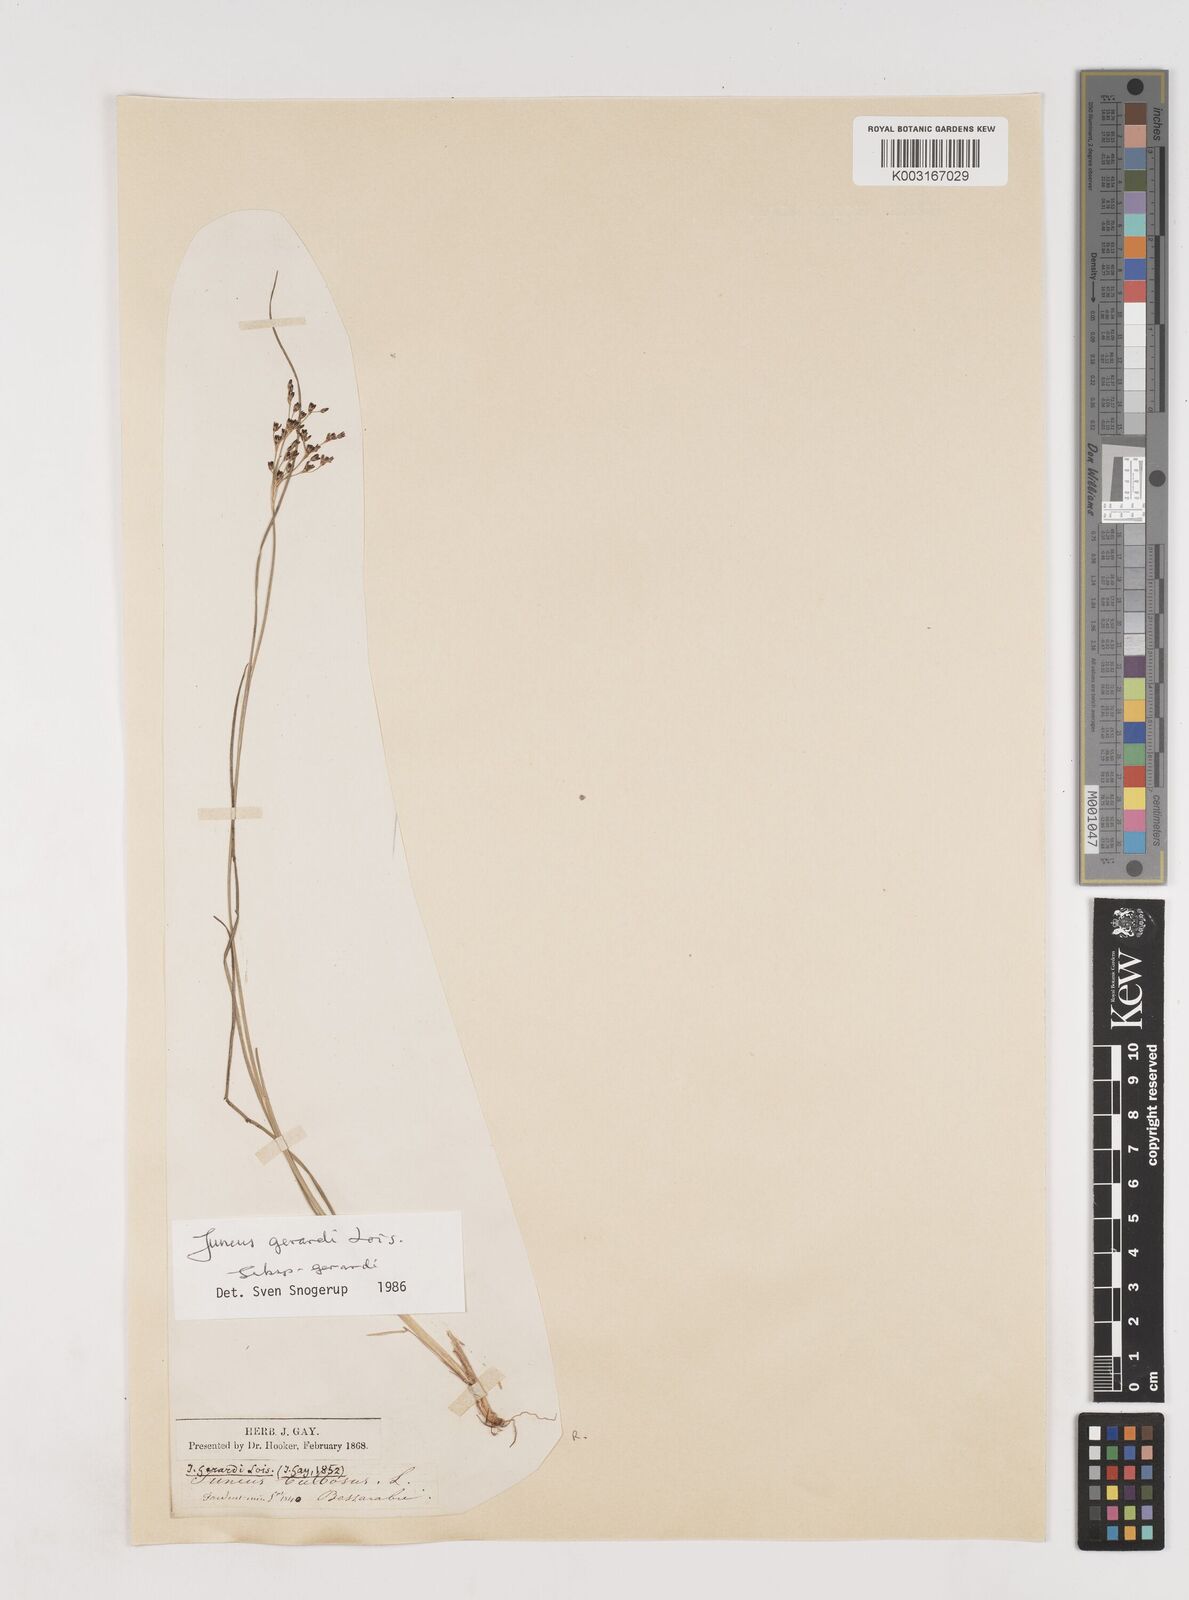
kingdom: Plantae
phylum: Tracheophyta
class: Liliopsida
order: Poales
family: Juncaceae
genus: Juncus
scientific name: Juncus gerardi
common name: Saltmarsh rush
